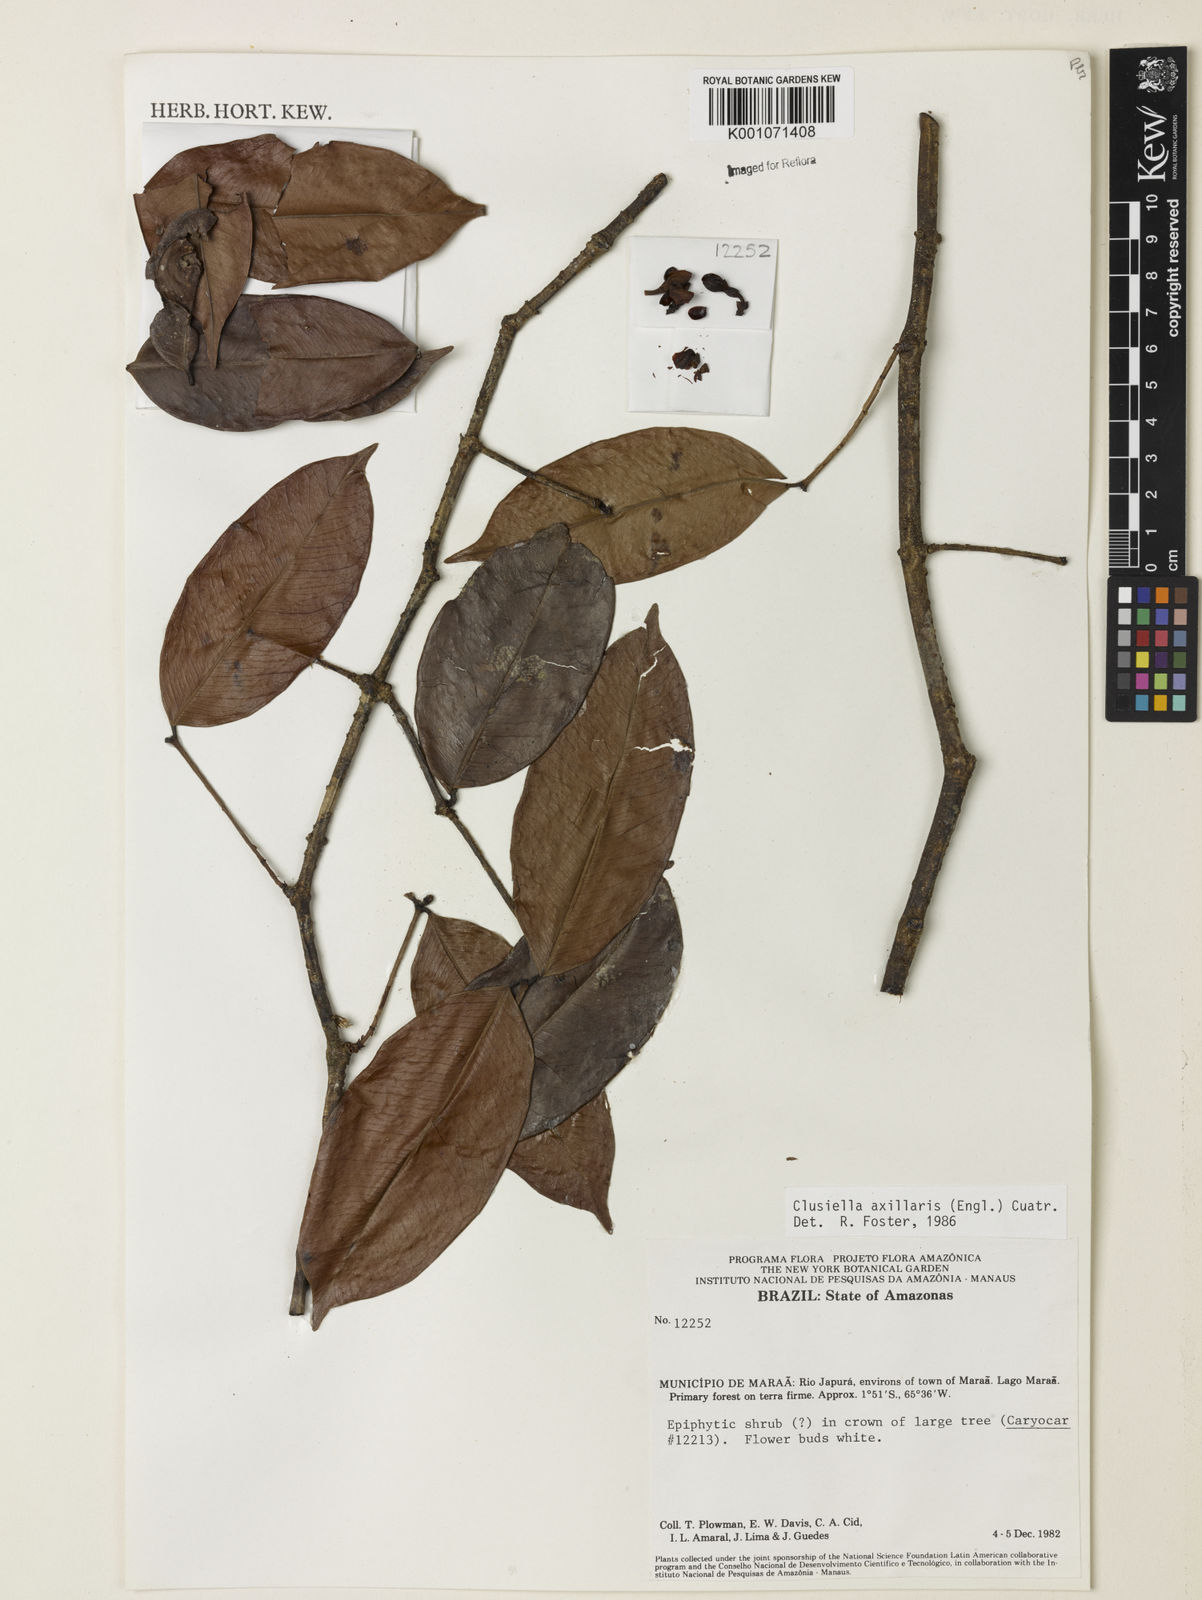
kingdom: Plantae
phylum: Tracheophyta
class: Magnoliopsida
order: Malpighiales
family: Calophyllaceae
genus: Clusiella
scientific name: Clusiella axillaris
